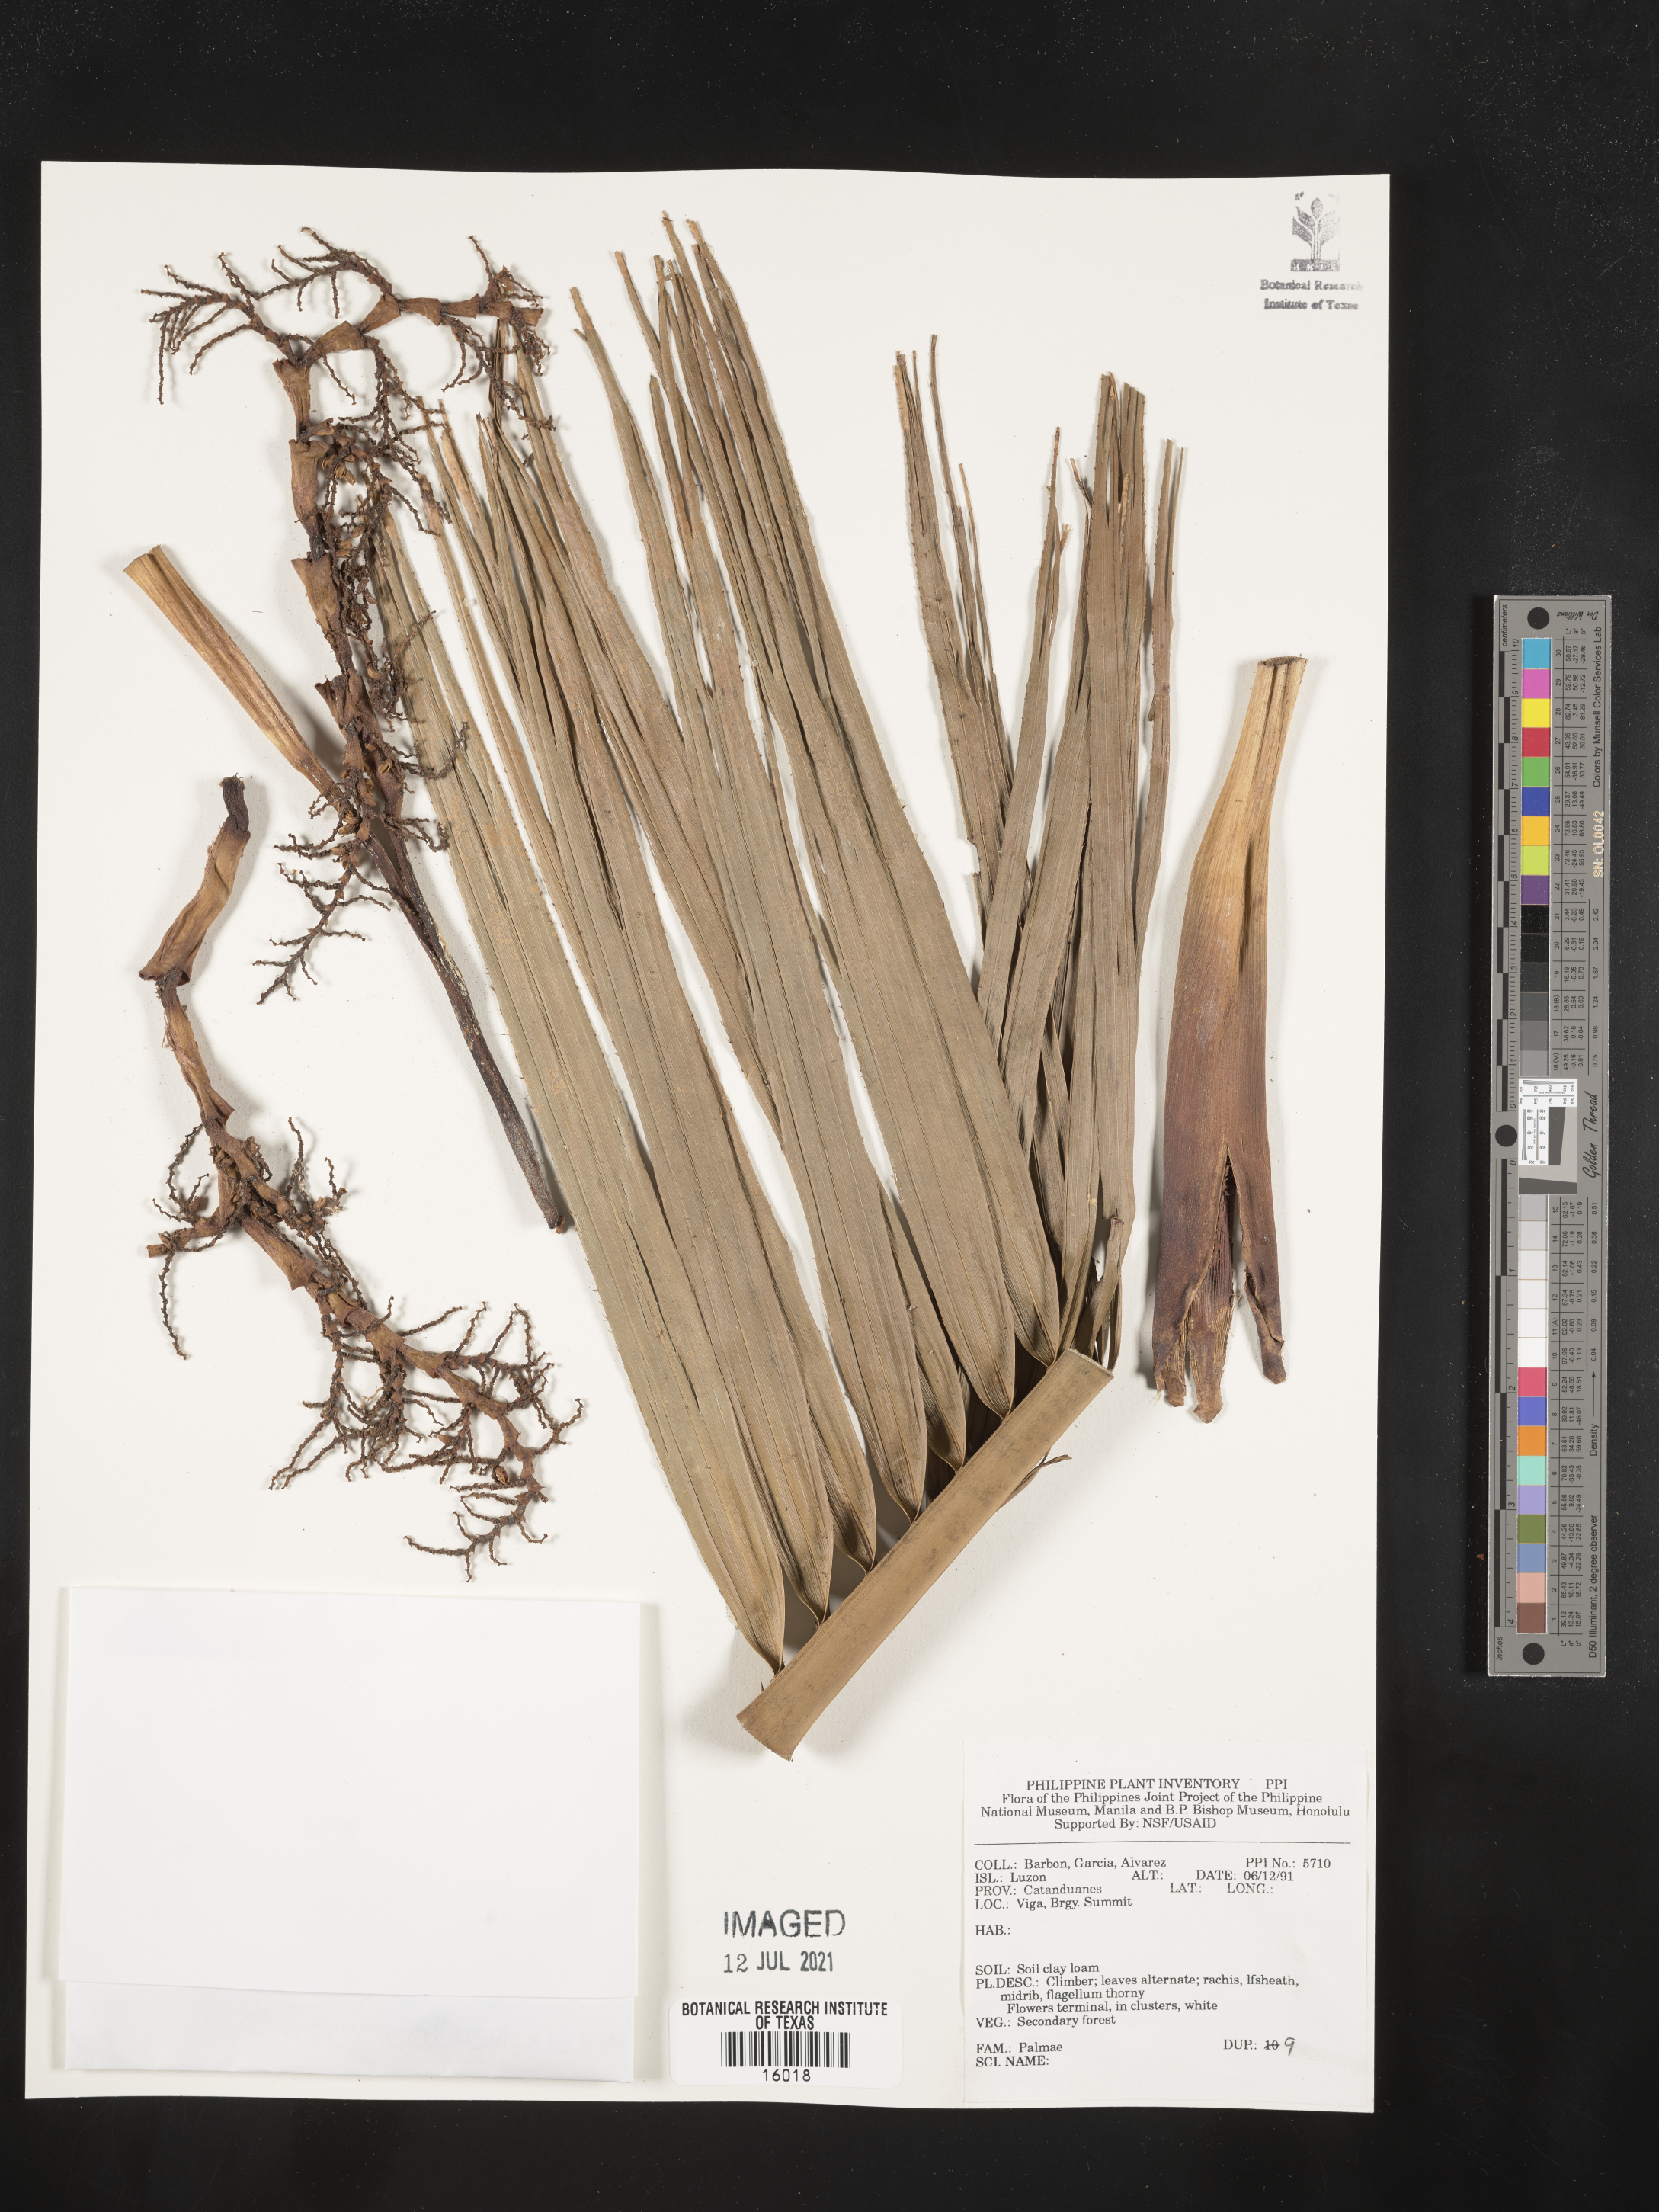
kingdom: Plantae
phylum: Tracheophyta
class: Liliopsida
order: Arecales
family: Arecaceae
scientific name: Arecaceae
